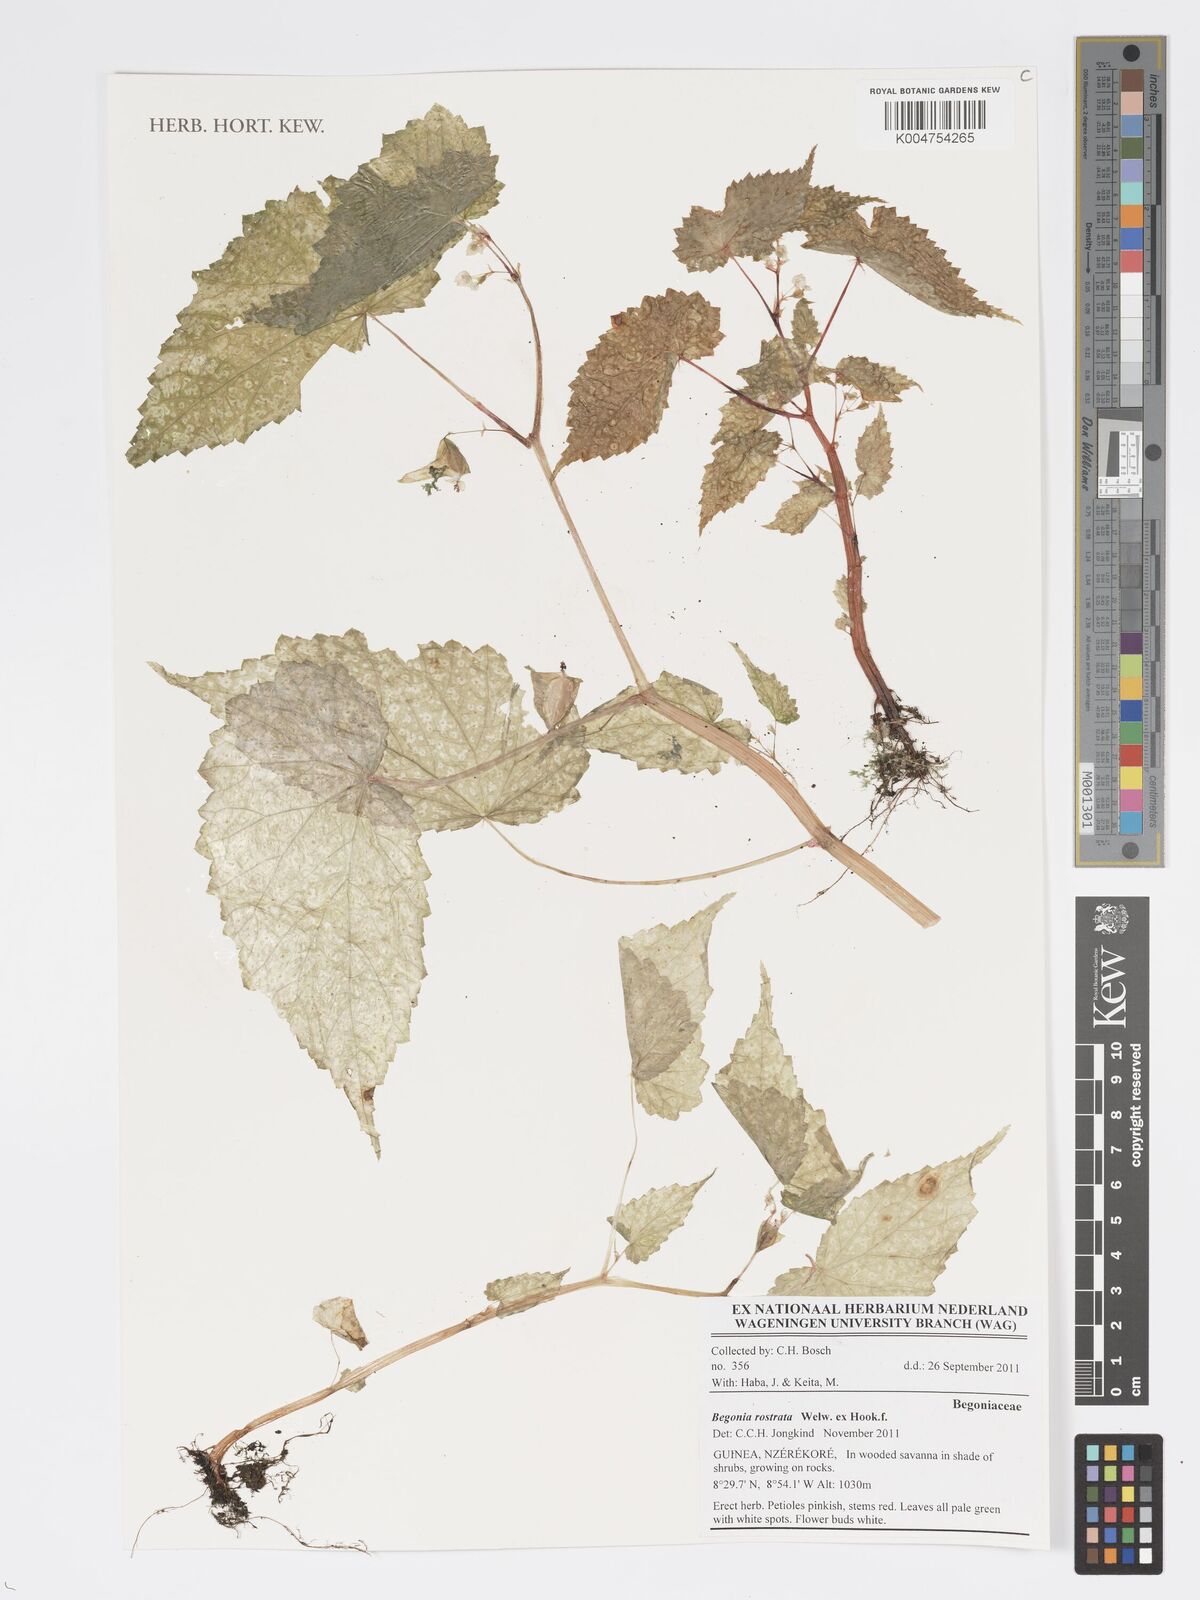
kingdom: Plantae
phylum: Tracheophyta
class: Magnoliopsida
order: Cucurbitales
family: Begoniaceae
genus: Begonia
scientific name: Begonia rostrata
